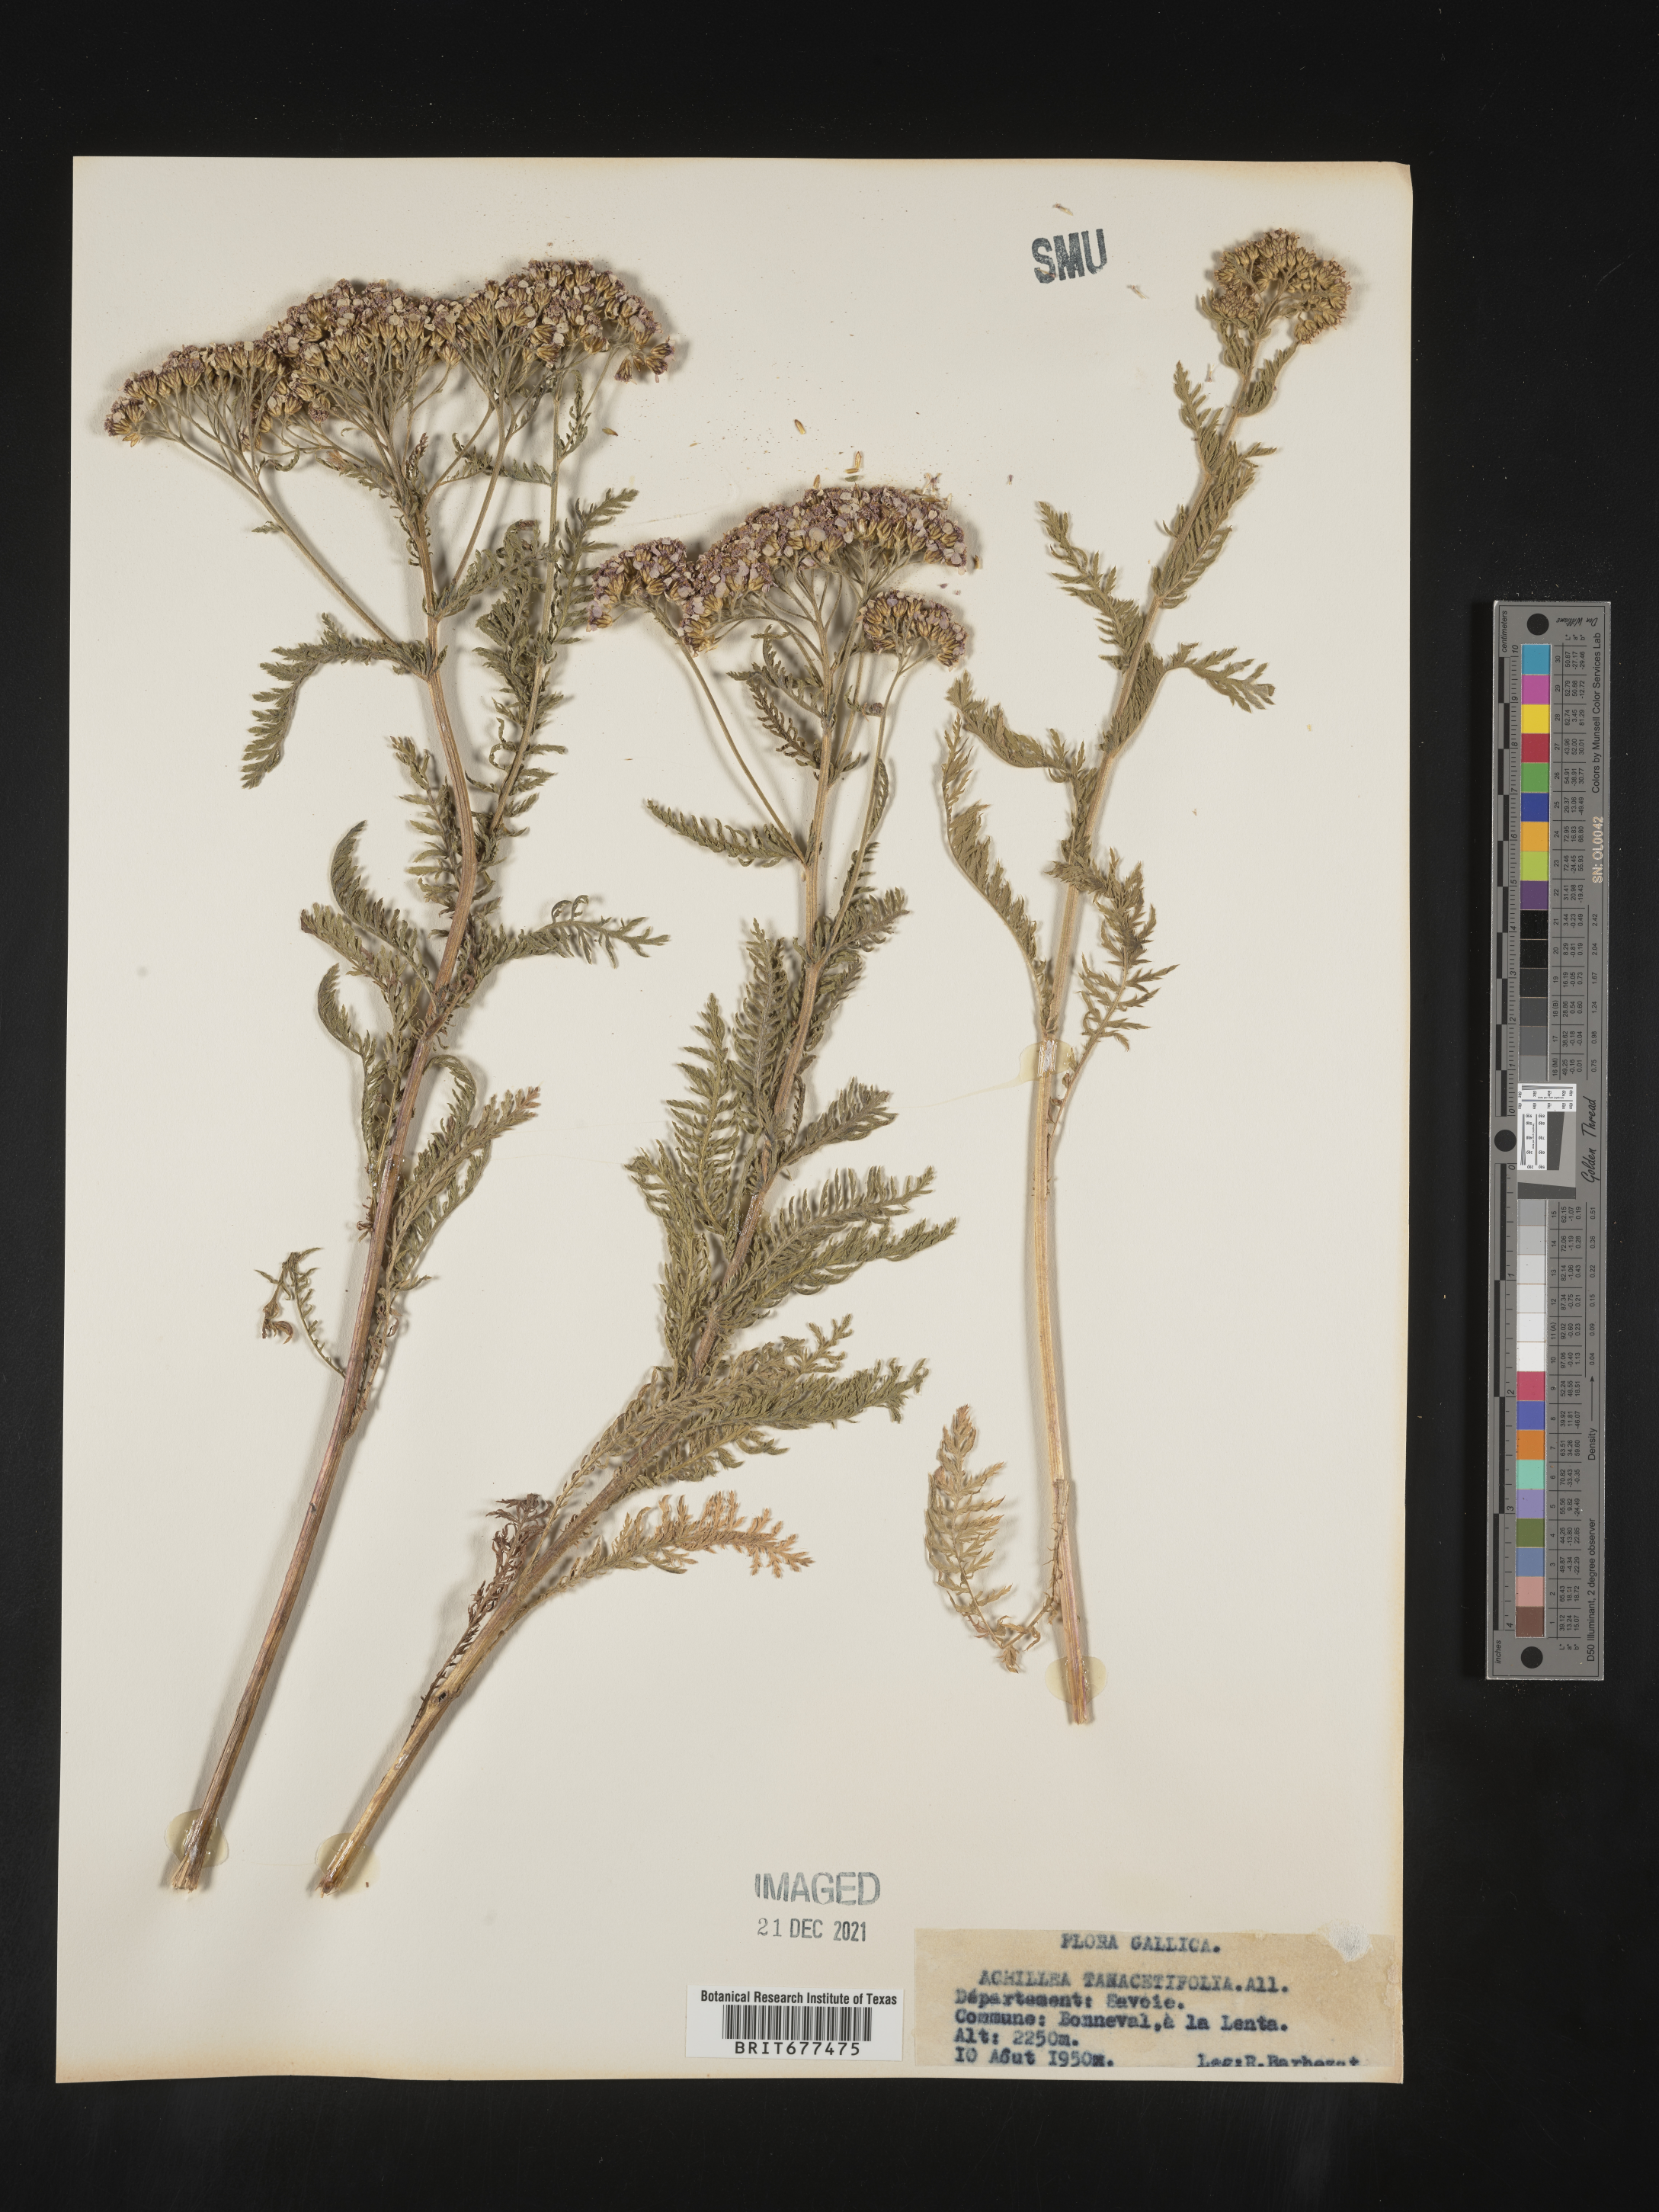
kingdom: Plantae
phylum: Tracheophyta
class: Magnoliopsida
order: Asterales
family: Asteraceae
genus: Achillea
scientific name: Achillea
